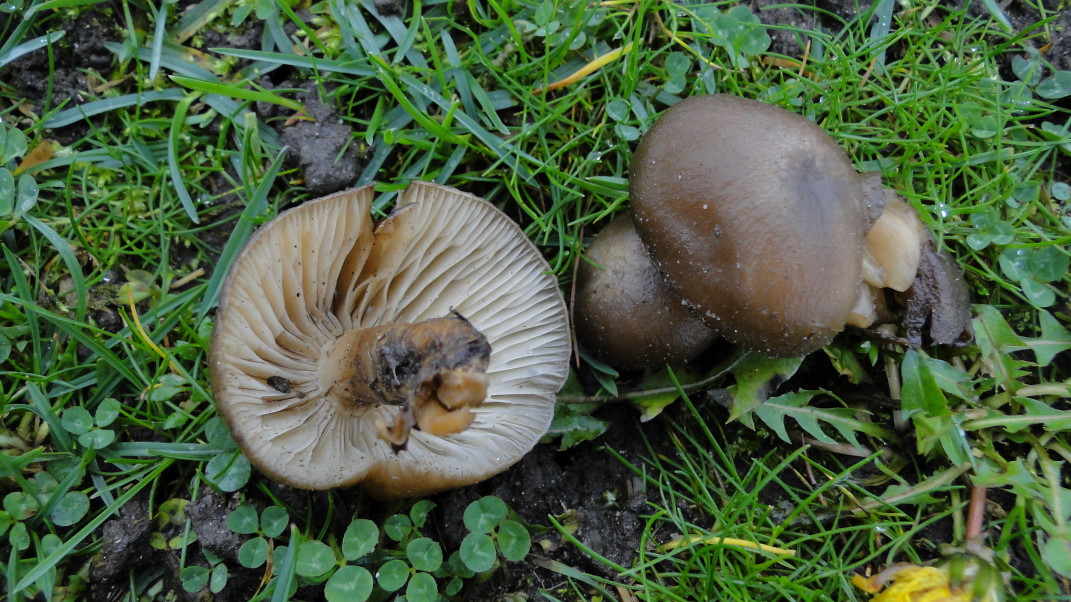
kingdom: Fungi
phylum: Basidiomycota
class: Agaricomycetes
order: Agaricales
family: Lyophyllaceae
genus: Lyophyllum
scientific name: Lyophyllum decastes
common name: Clustered domecap
